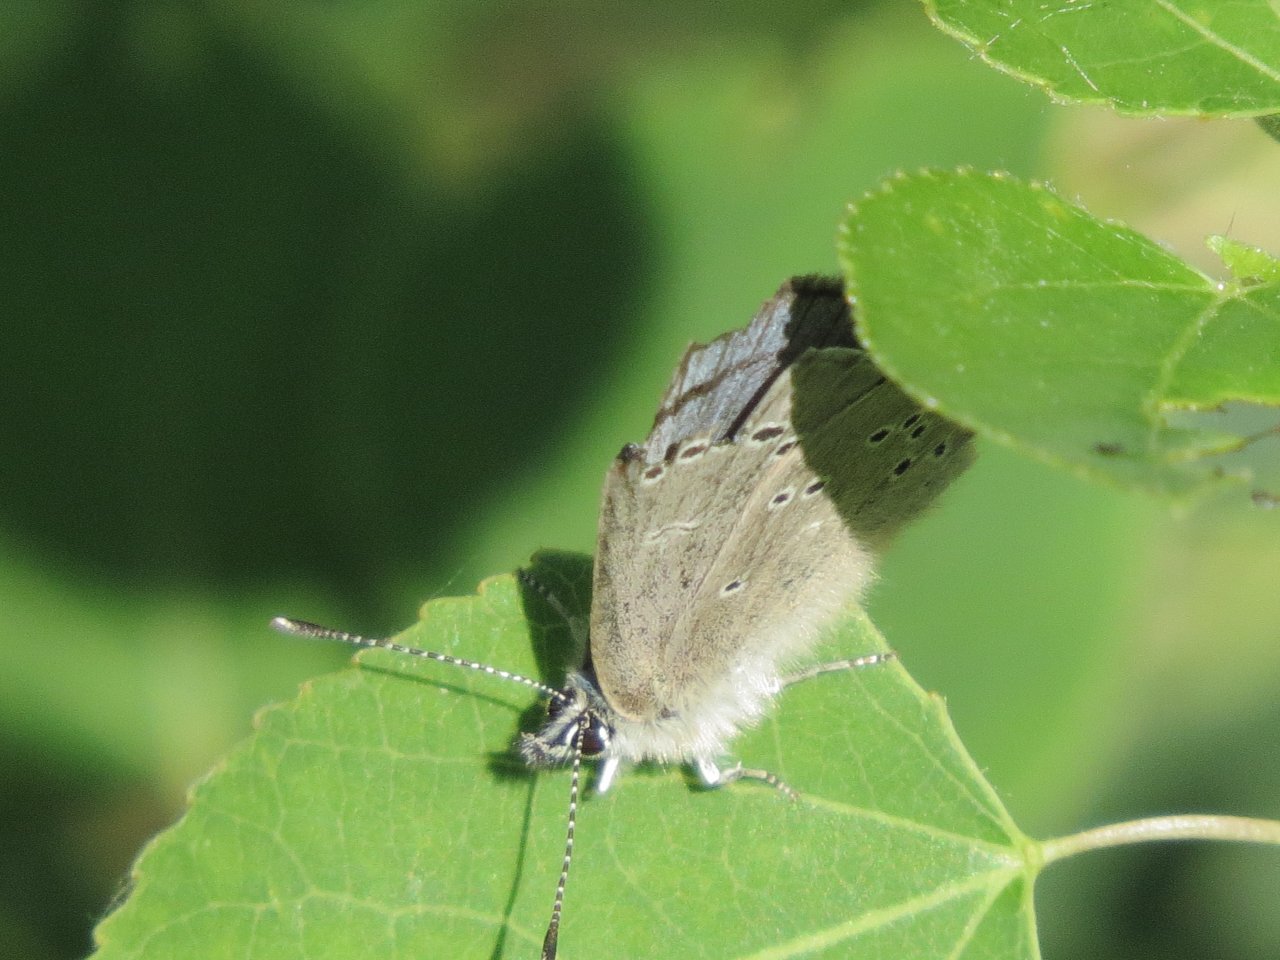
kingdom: Animalia
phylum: Arthropoda
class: Insecta
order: Lepidoptera
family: Lycaenidae
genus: Glaucopsyche
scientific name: Glaucopsyche lygdamus
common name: Silvery Blue
